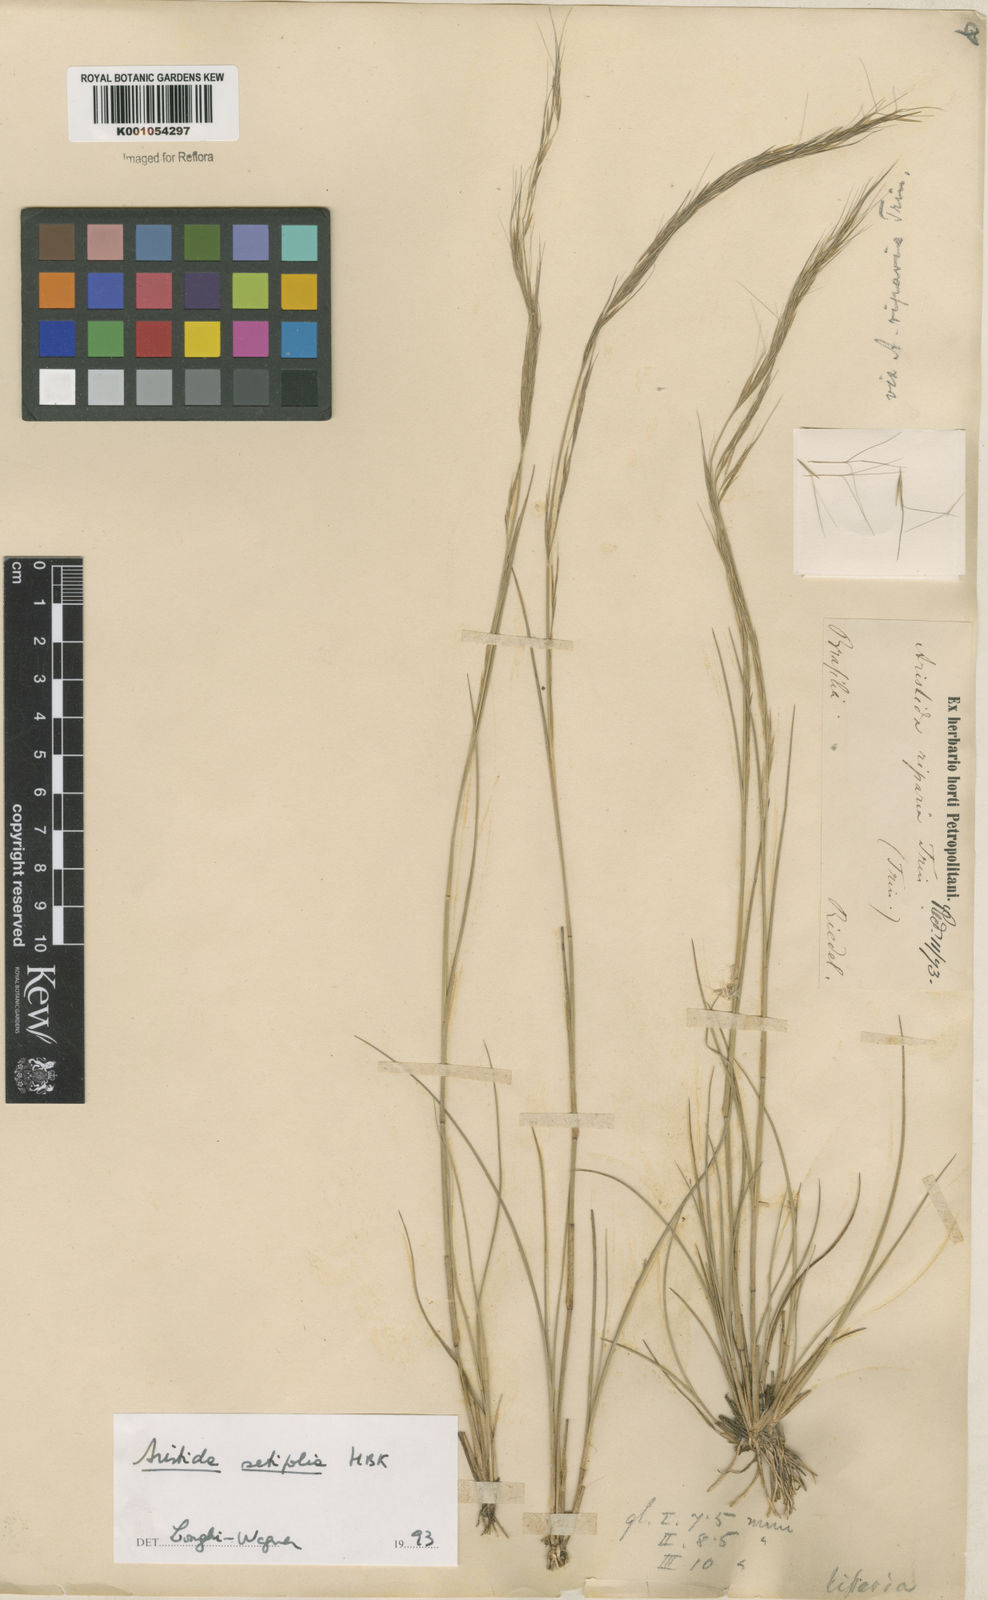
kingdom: Plantae
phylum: Tracheophyta
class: Liliopsida
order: Poales
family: Poaceae
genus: Aristida
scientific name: Aristida setifolia
